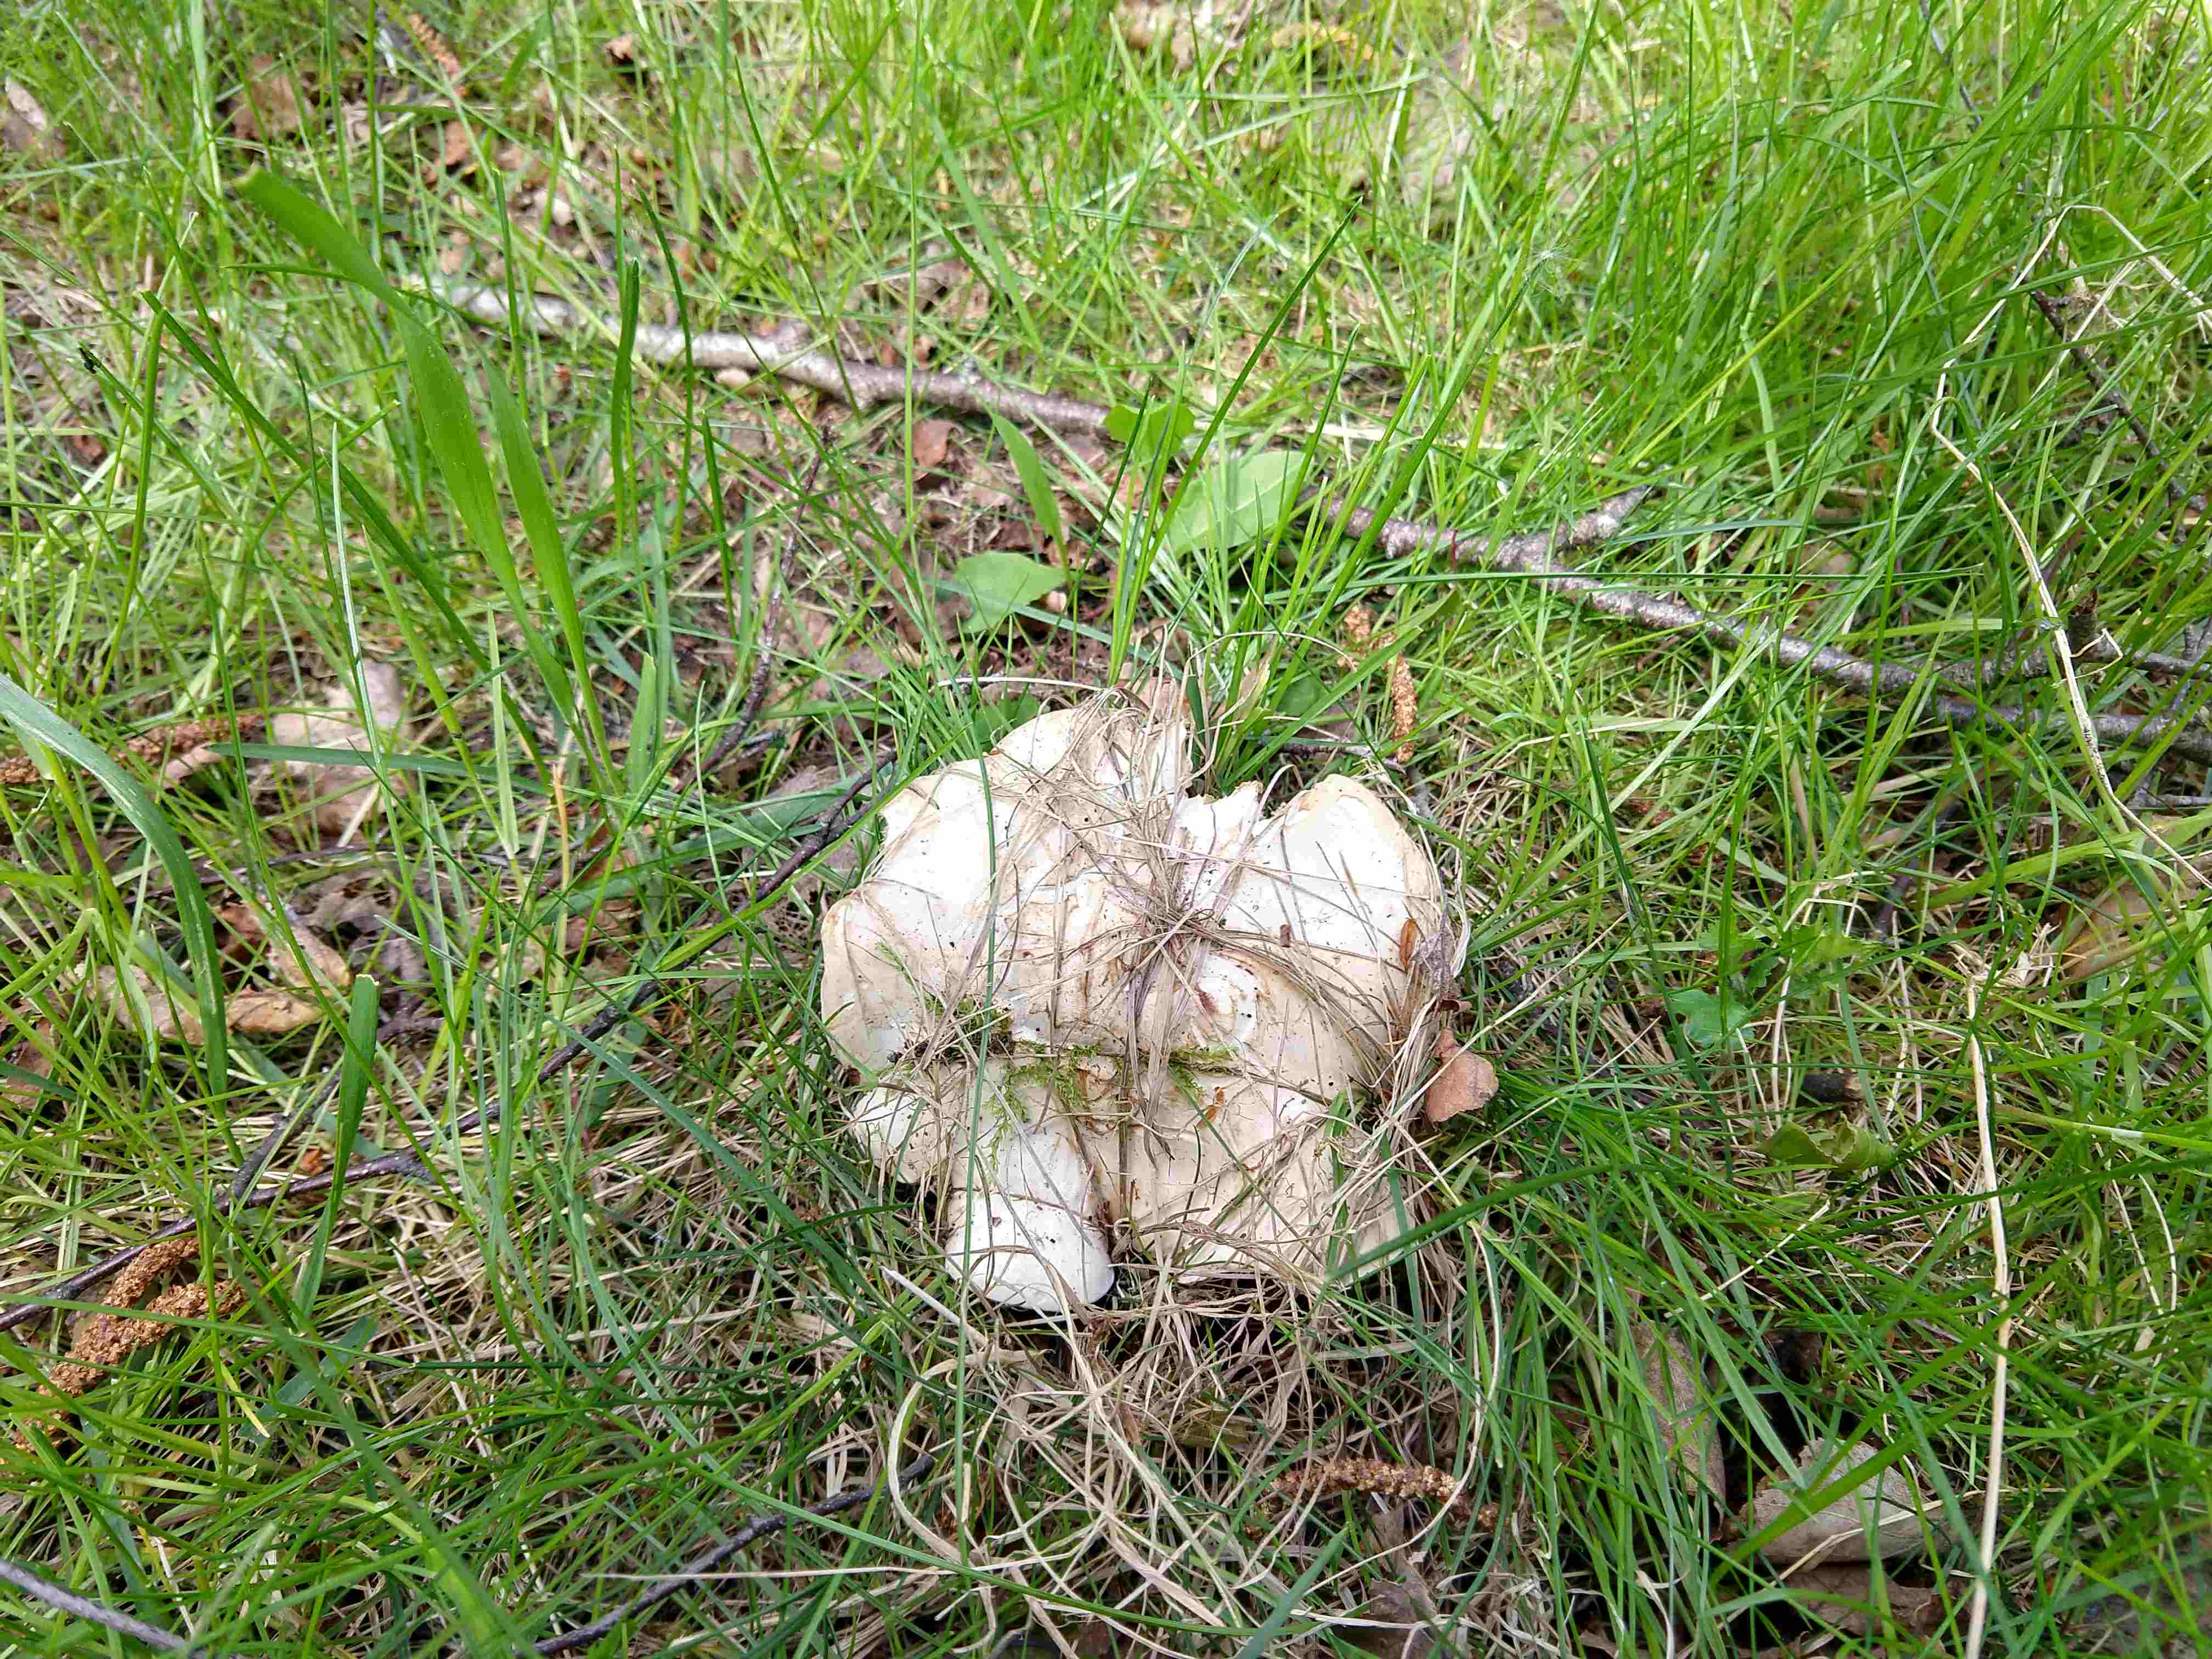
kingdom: Fungi
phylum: Basidiomycota
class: Agaricomycetes
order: Agaricales
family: Lyophyllaceae
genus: Calocybe
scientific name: Calocybe gambosa
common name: vårmusseron
